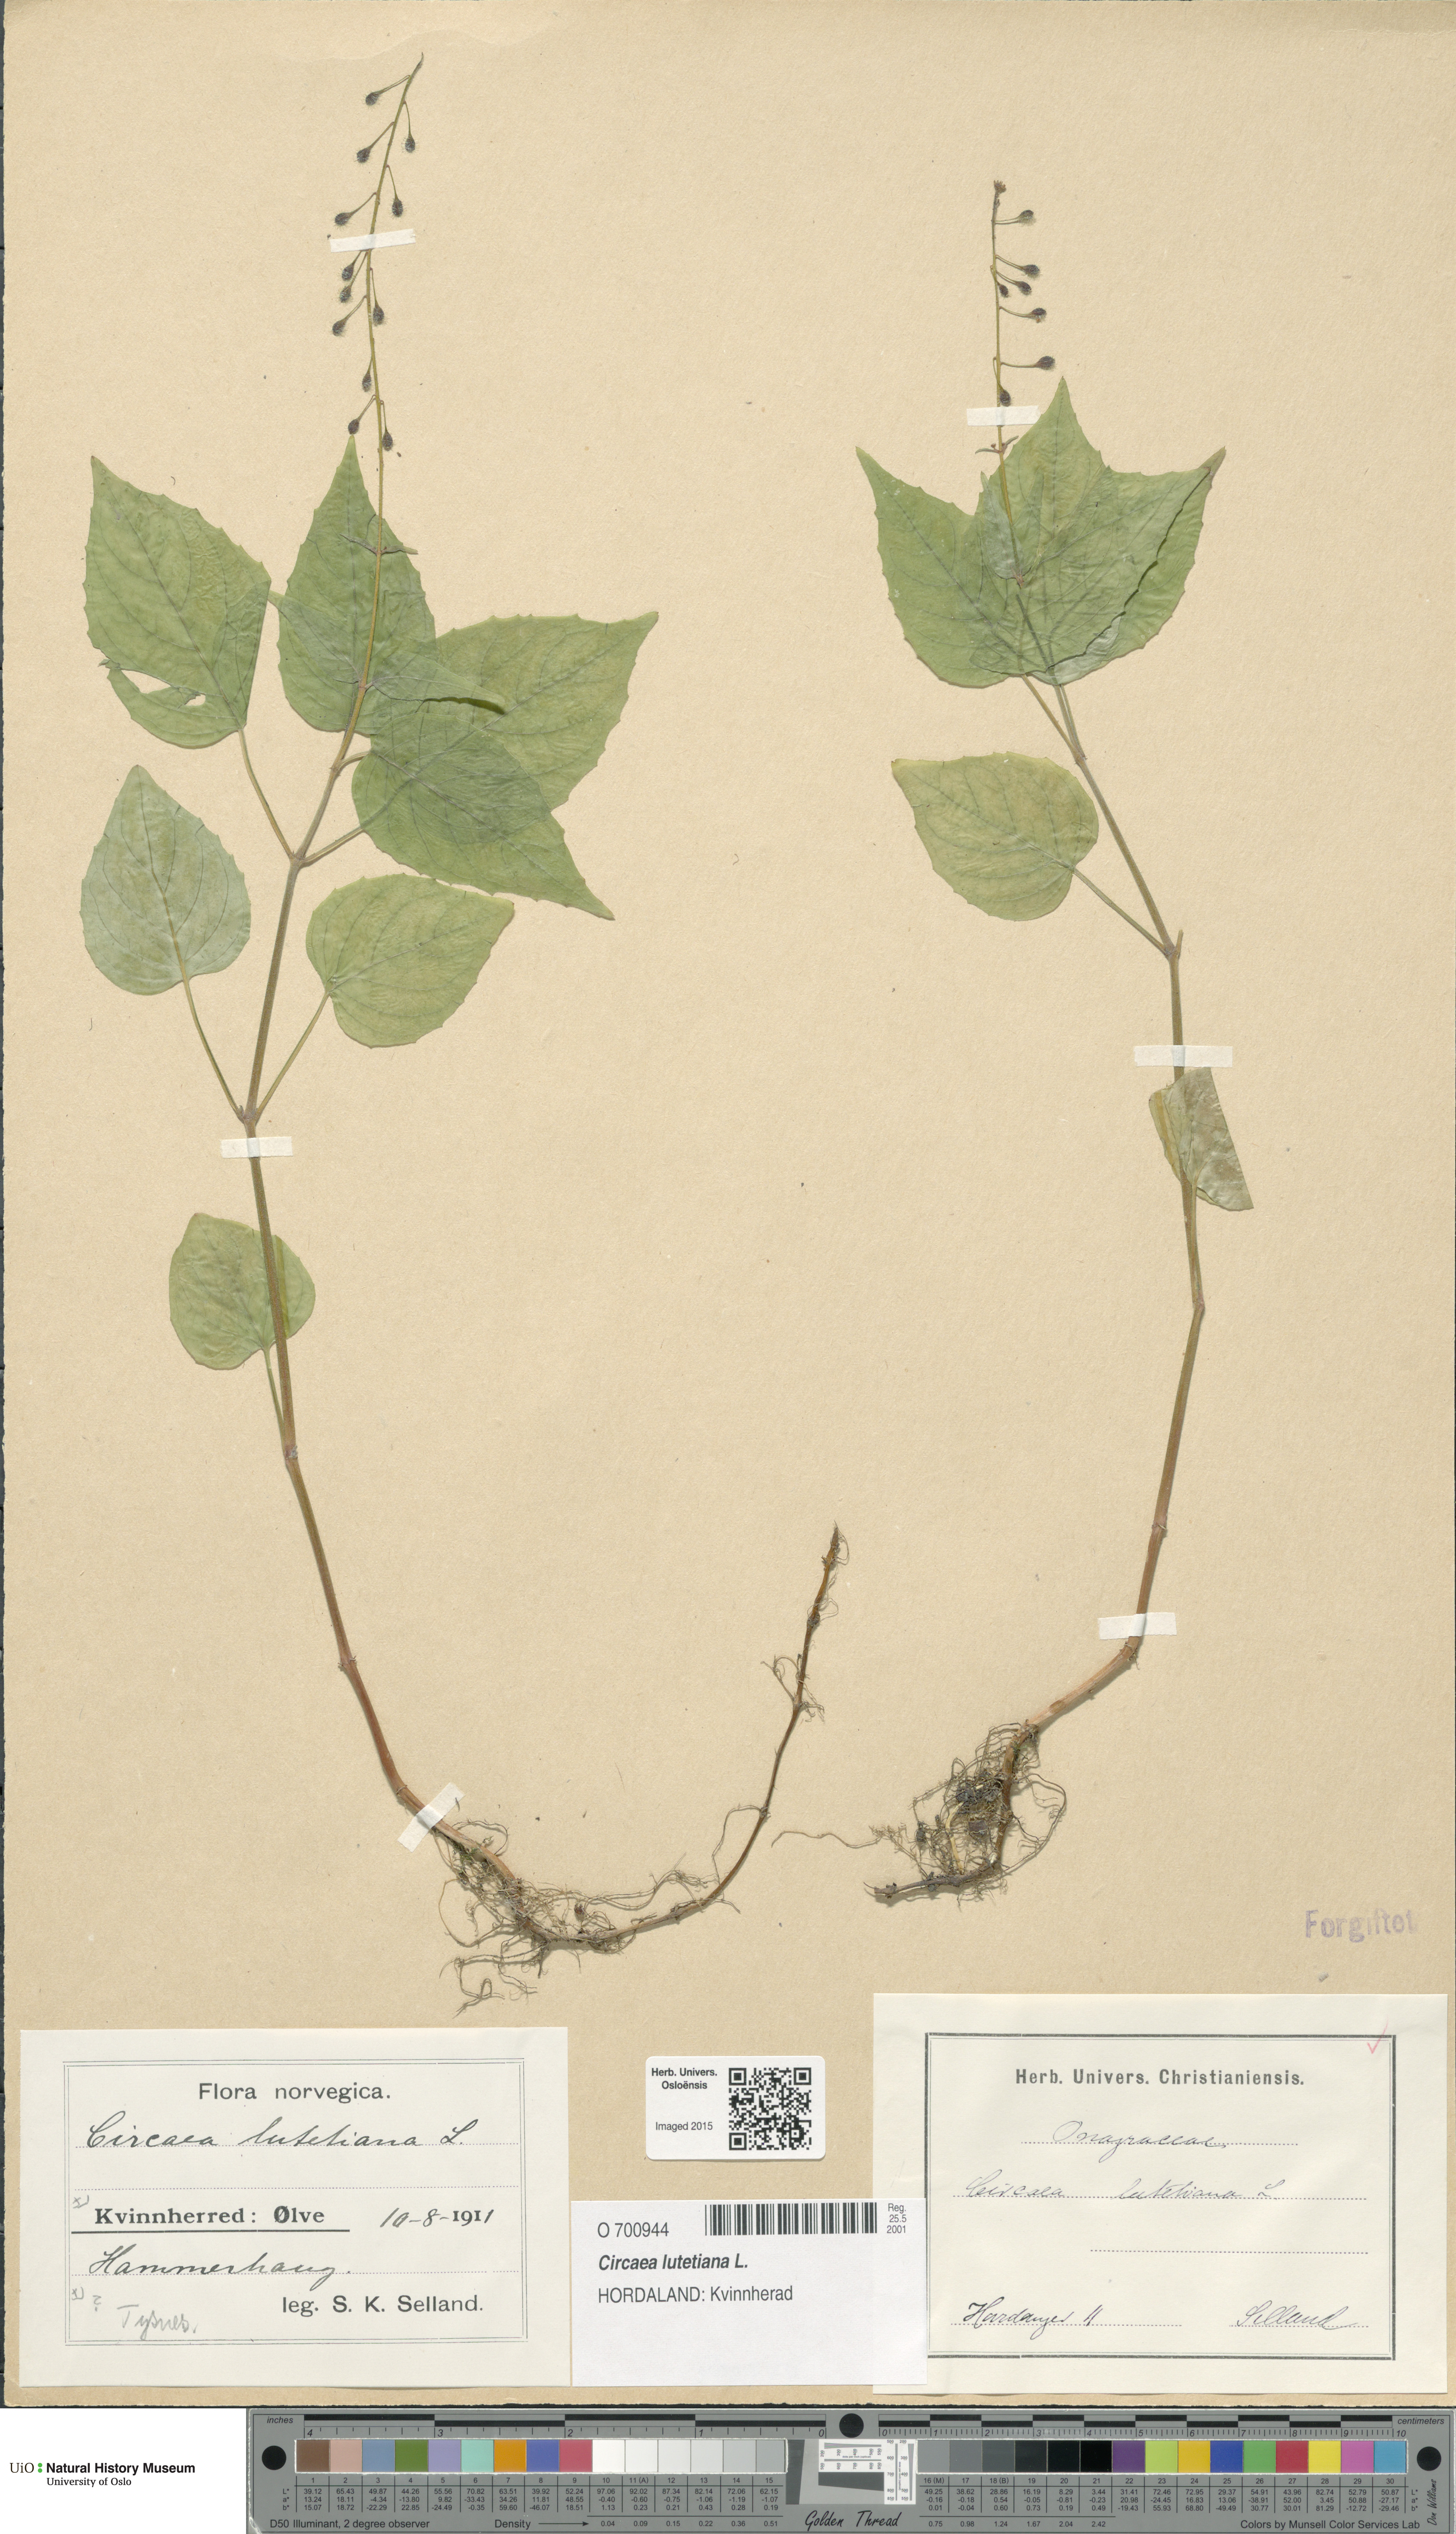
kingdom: Plantae
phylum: Tracheophyta
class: Magnoliopsida
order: Myrtales
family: Onagraceae
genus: Circaea
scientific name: Circaea lutetiana
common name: Enchanter's-nightshade
